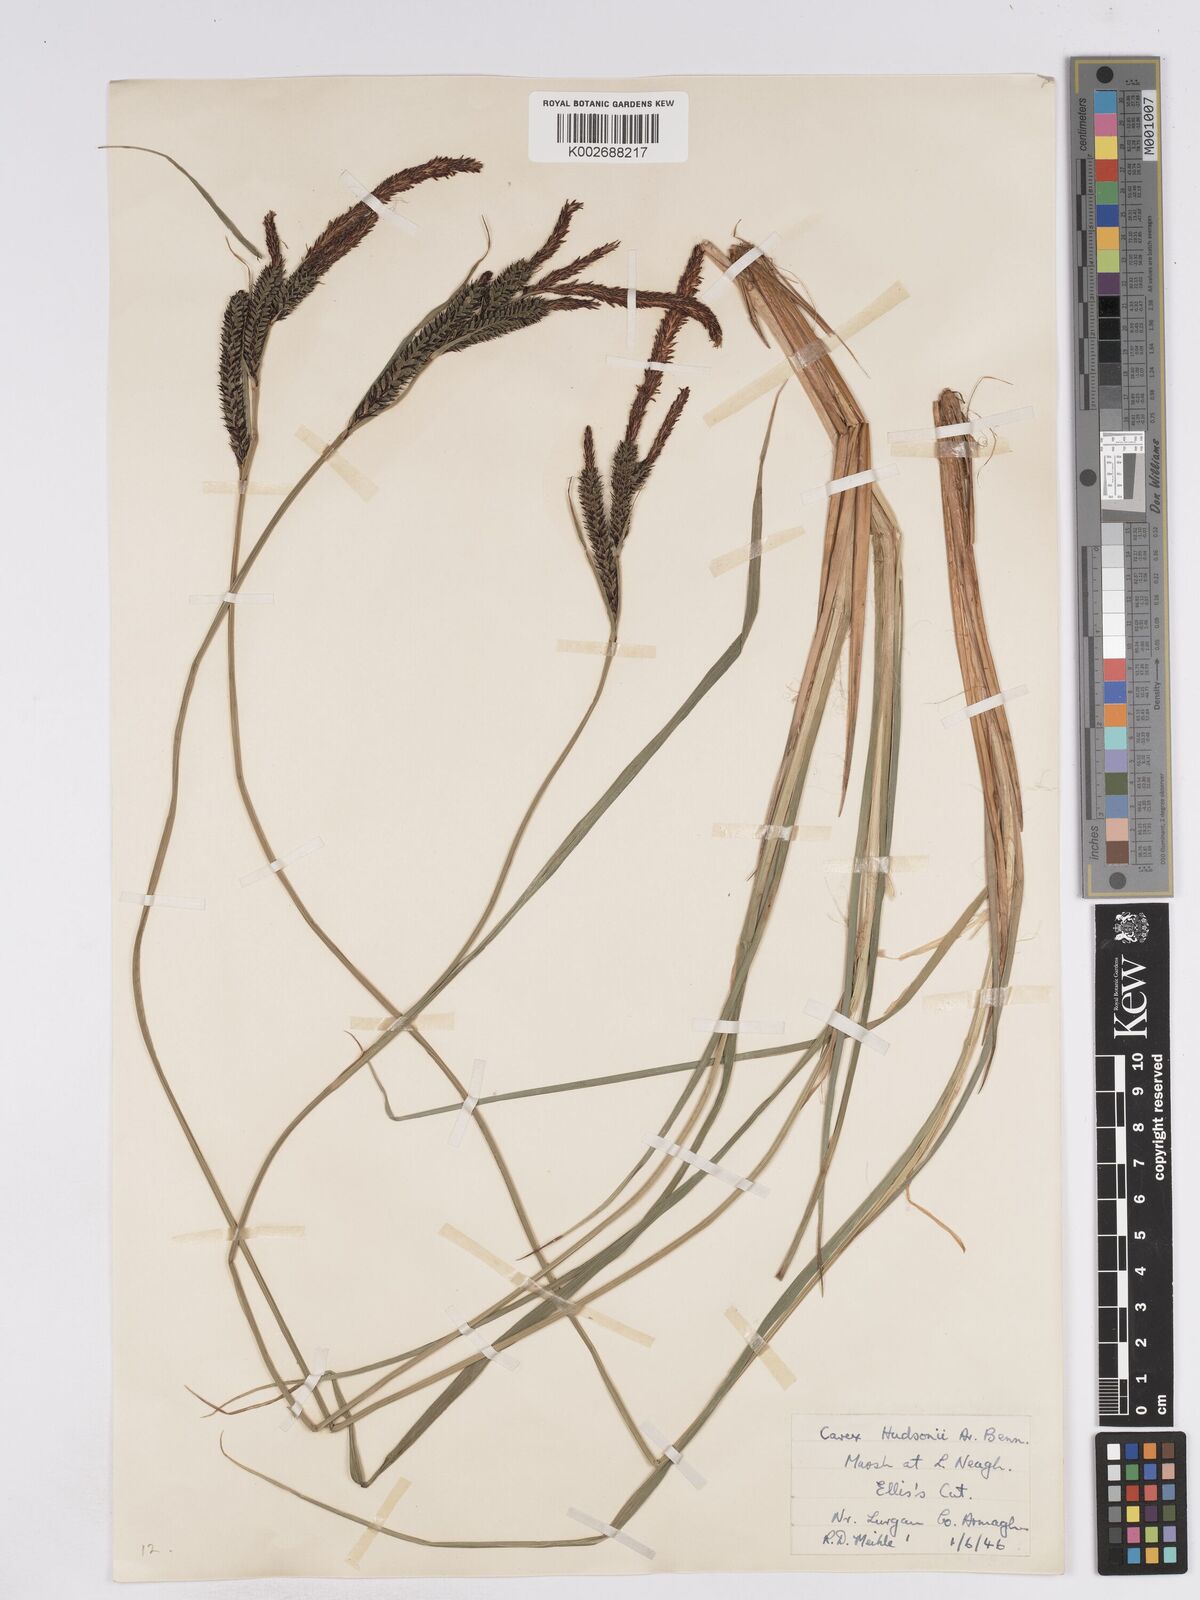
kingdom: Plantae
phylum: Tracheophyta
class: Liliopsida
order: Poales
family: Cyperaceae
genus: Carex
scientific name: Carex elata
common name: Tufted sedge
